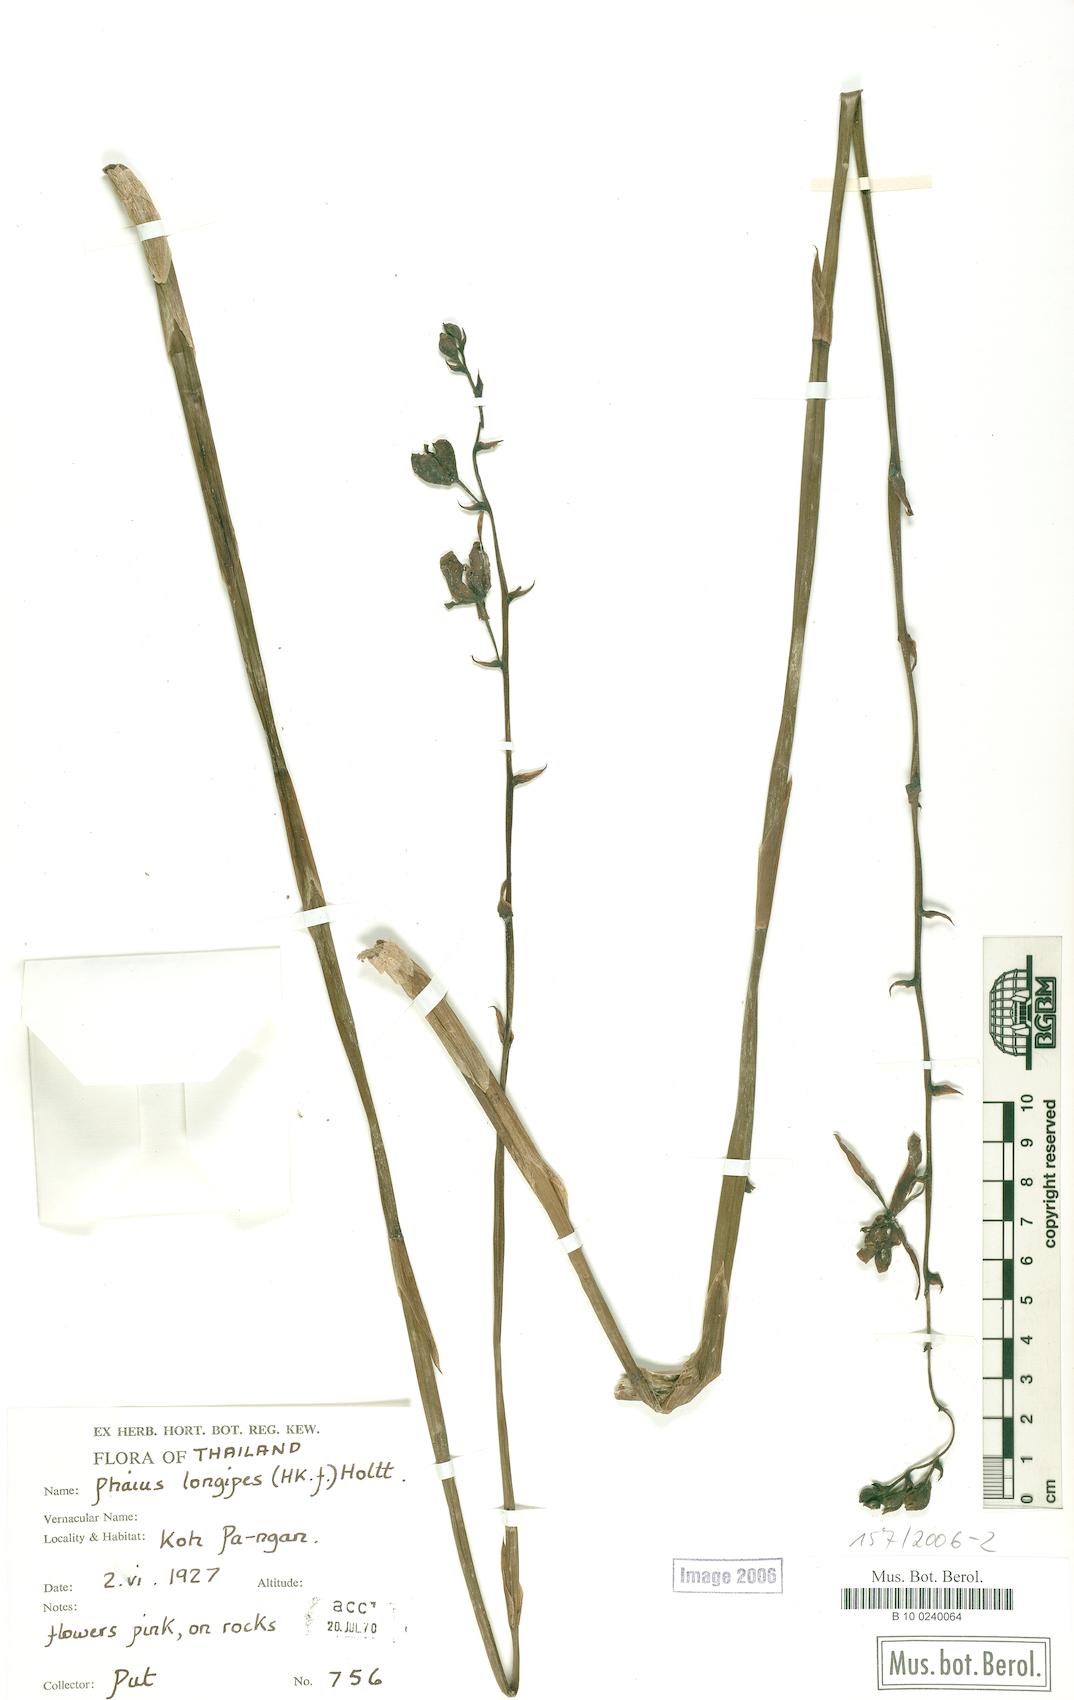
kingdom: Plantae
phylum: Tracheophyta
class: Liliopsida
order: Asparagales
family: Orchidaceae
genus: Calanthe
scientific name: Calanthe longipes
